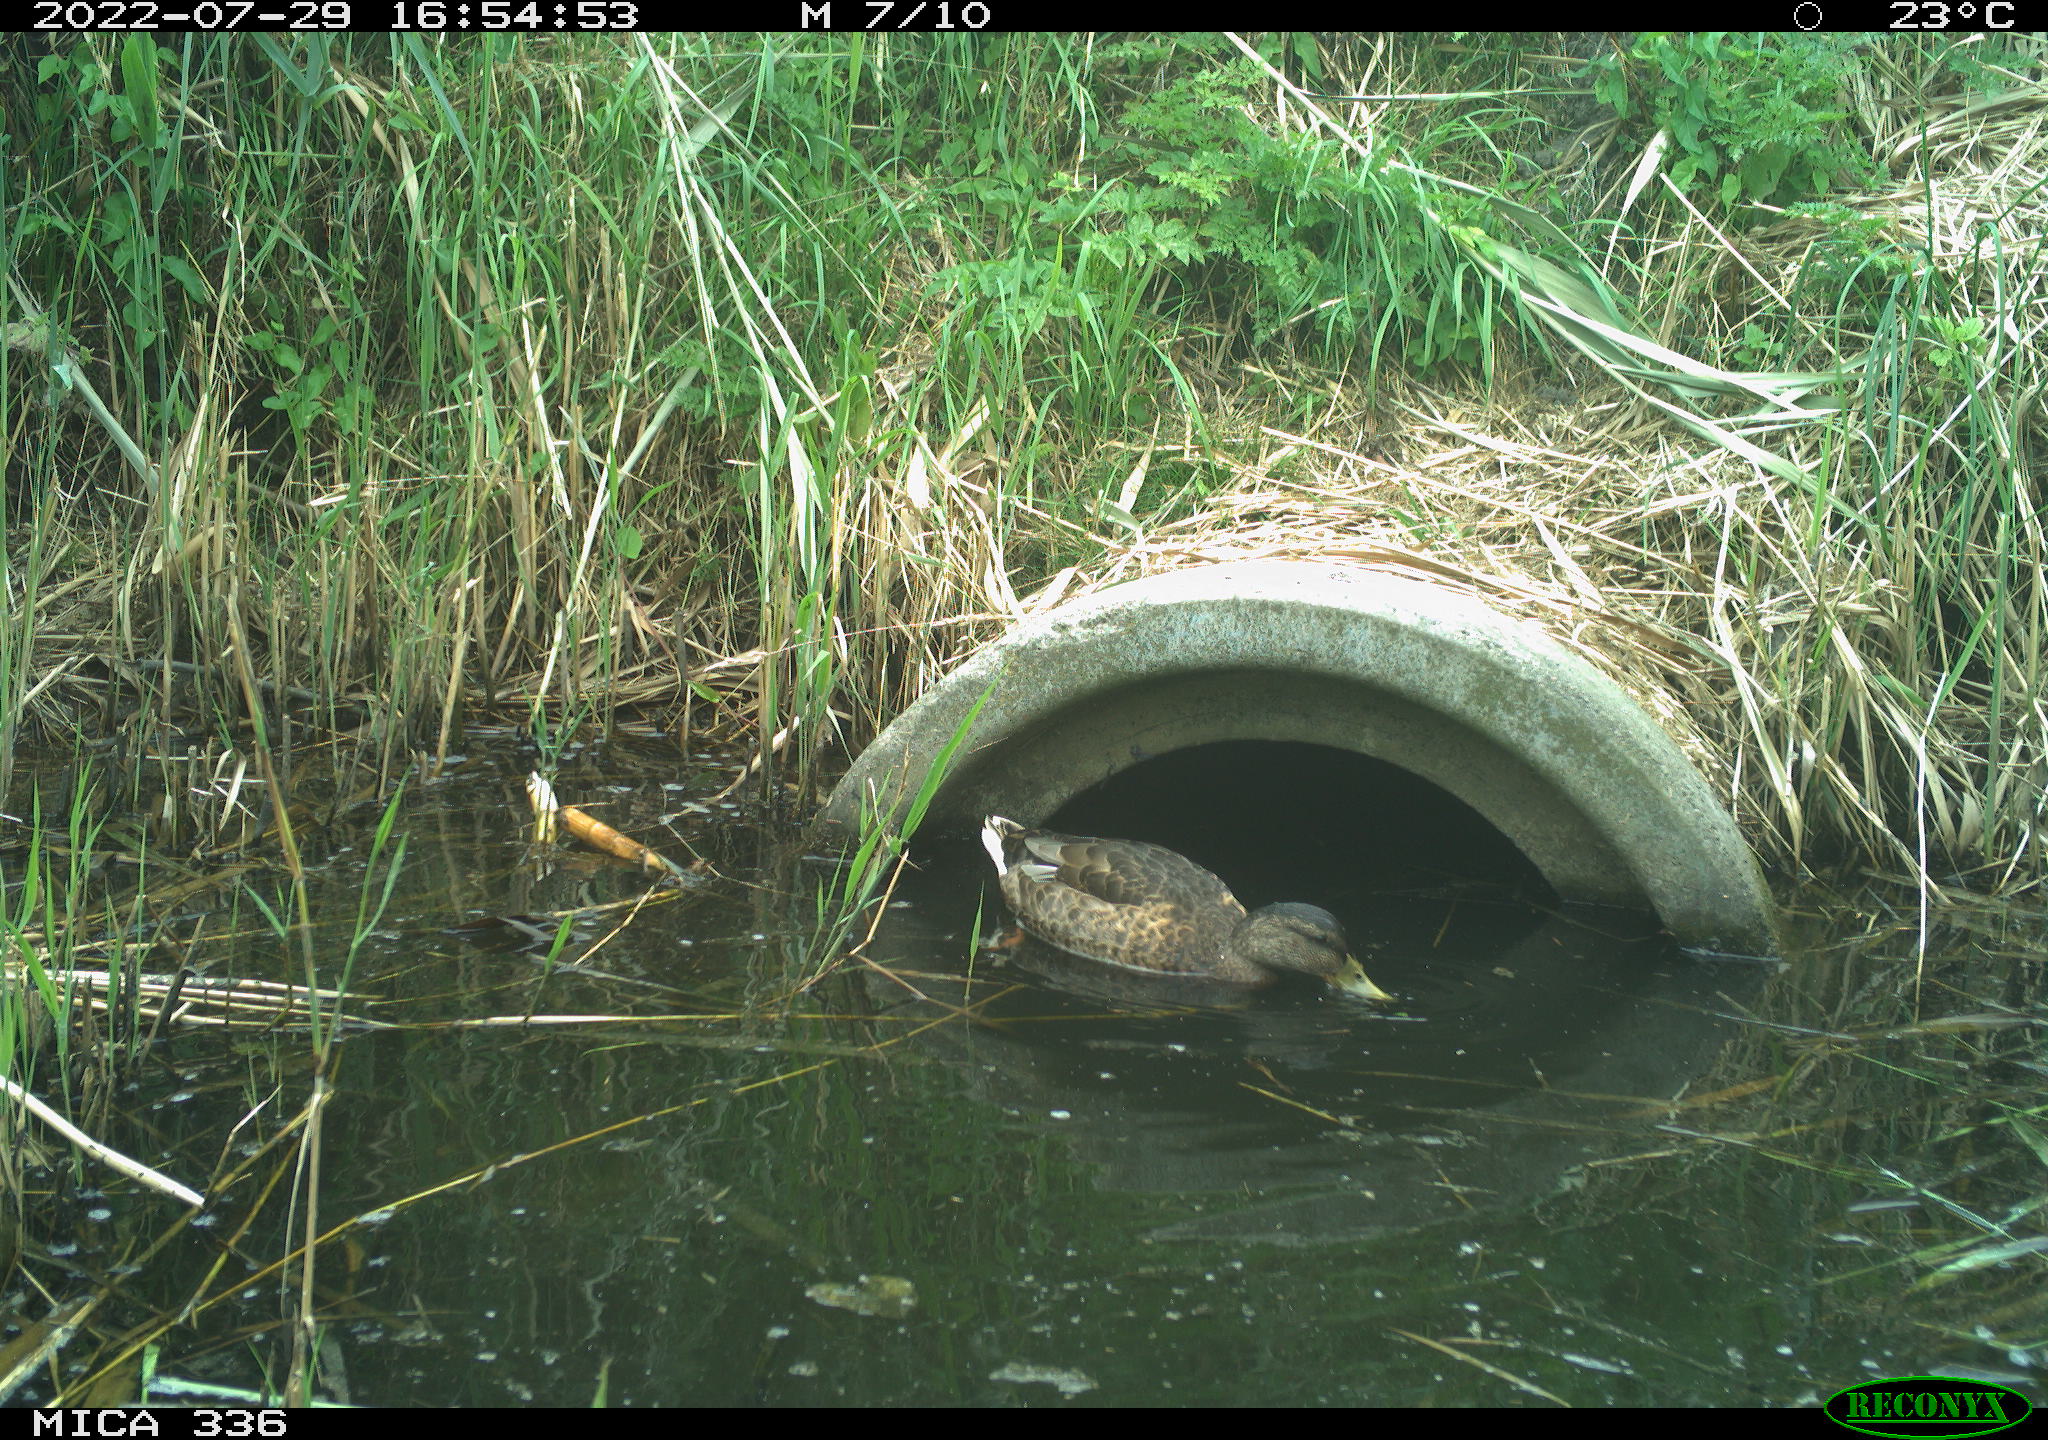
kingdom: Animalia
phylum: Chordata
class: Aves
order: Anseriformes
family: Anatidae
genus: Anas
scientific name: Anas platyrhynchos
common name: Mallard
